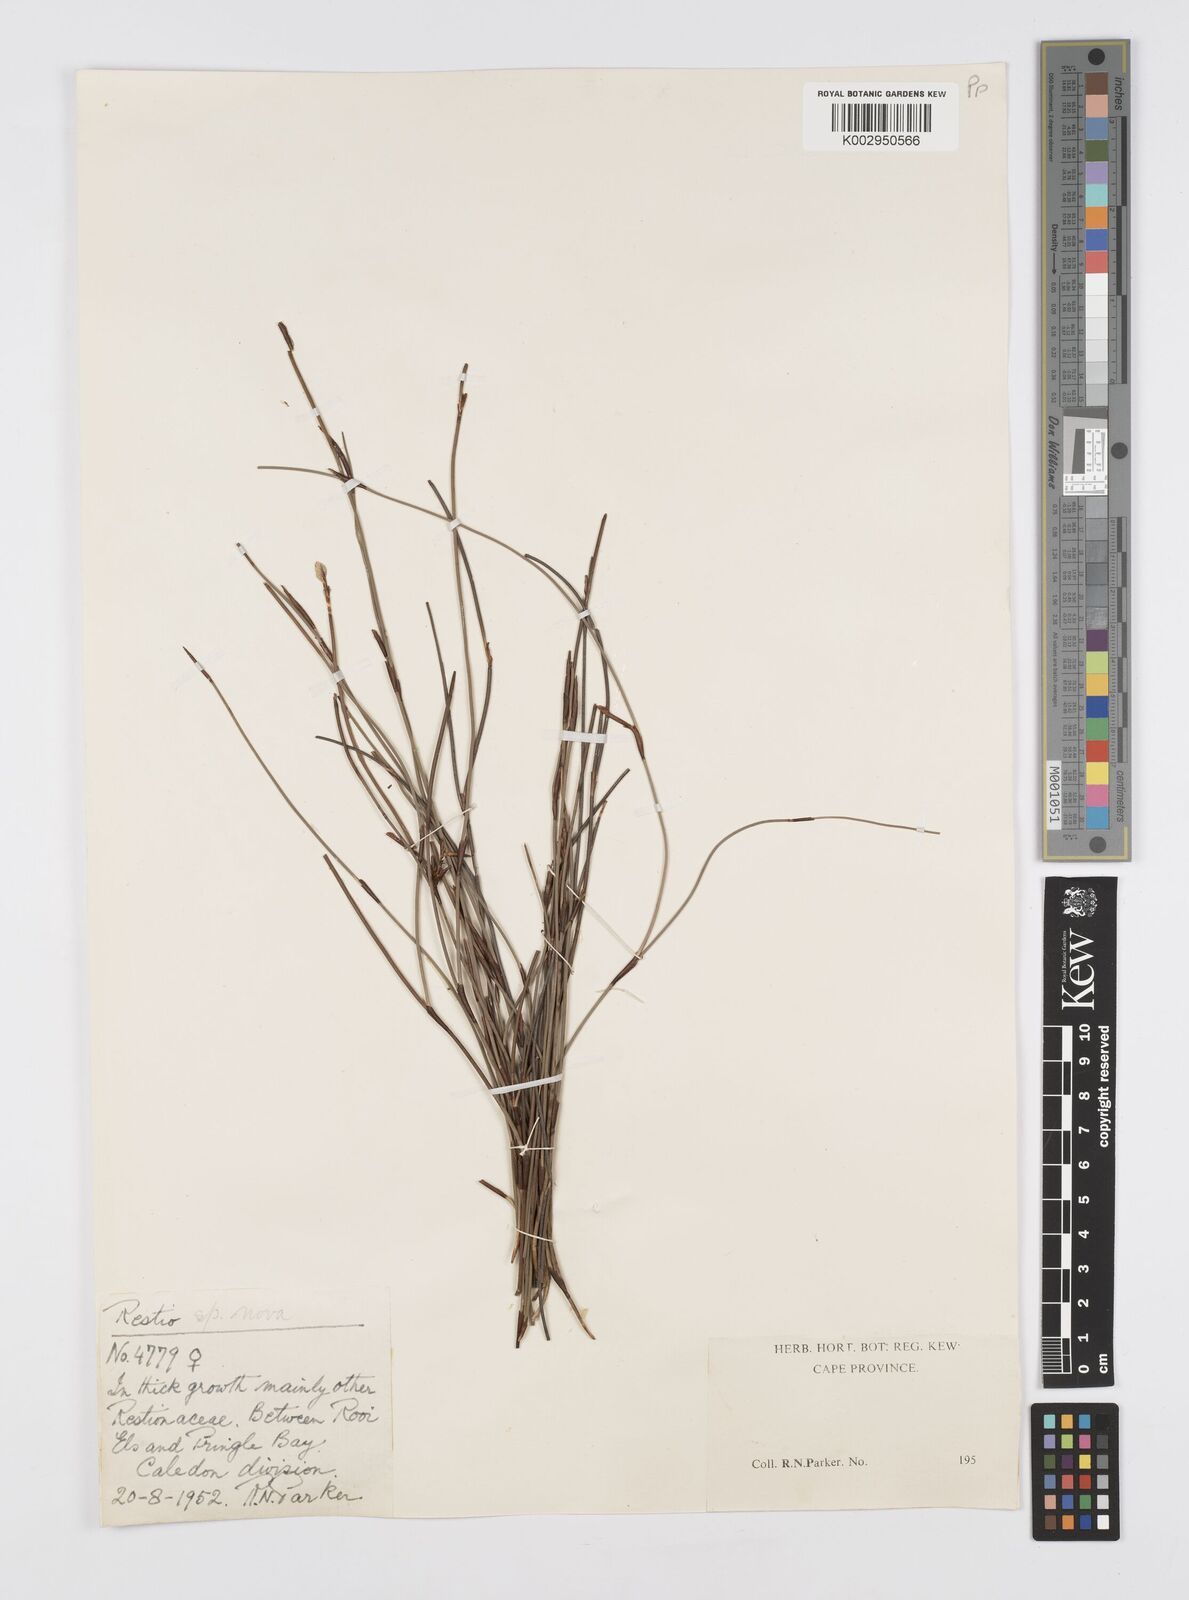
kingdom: Plantae
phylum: Tracheophyta
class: Liliopsida
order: Poales
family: Restionaceae
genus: Soroveta
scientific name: Soroveta ambigua
